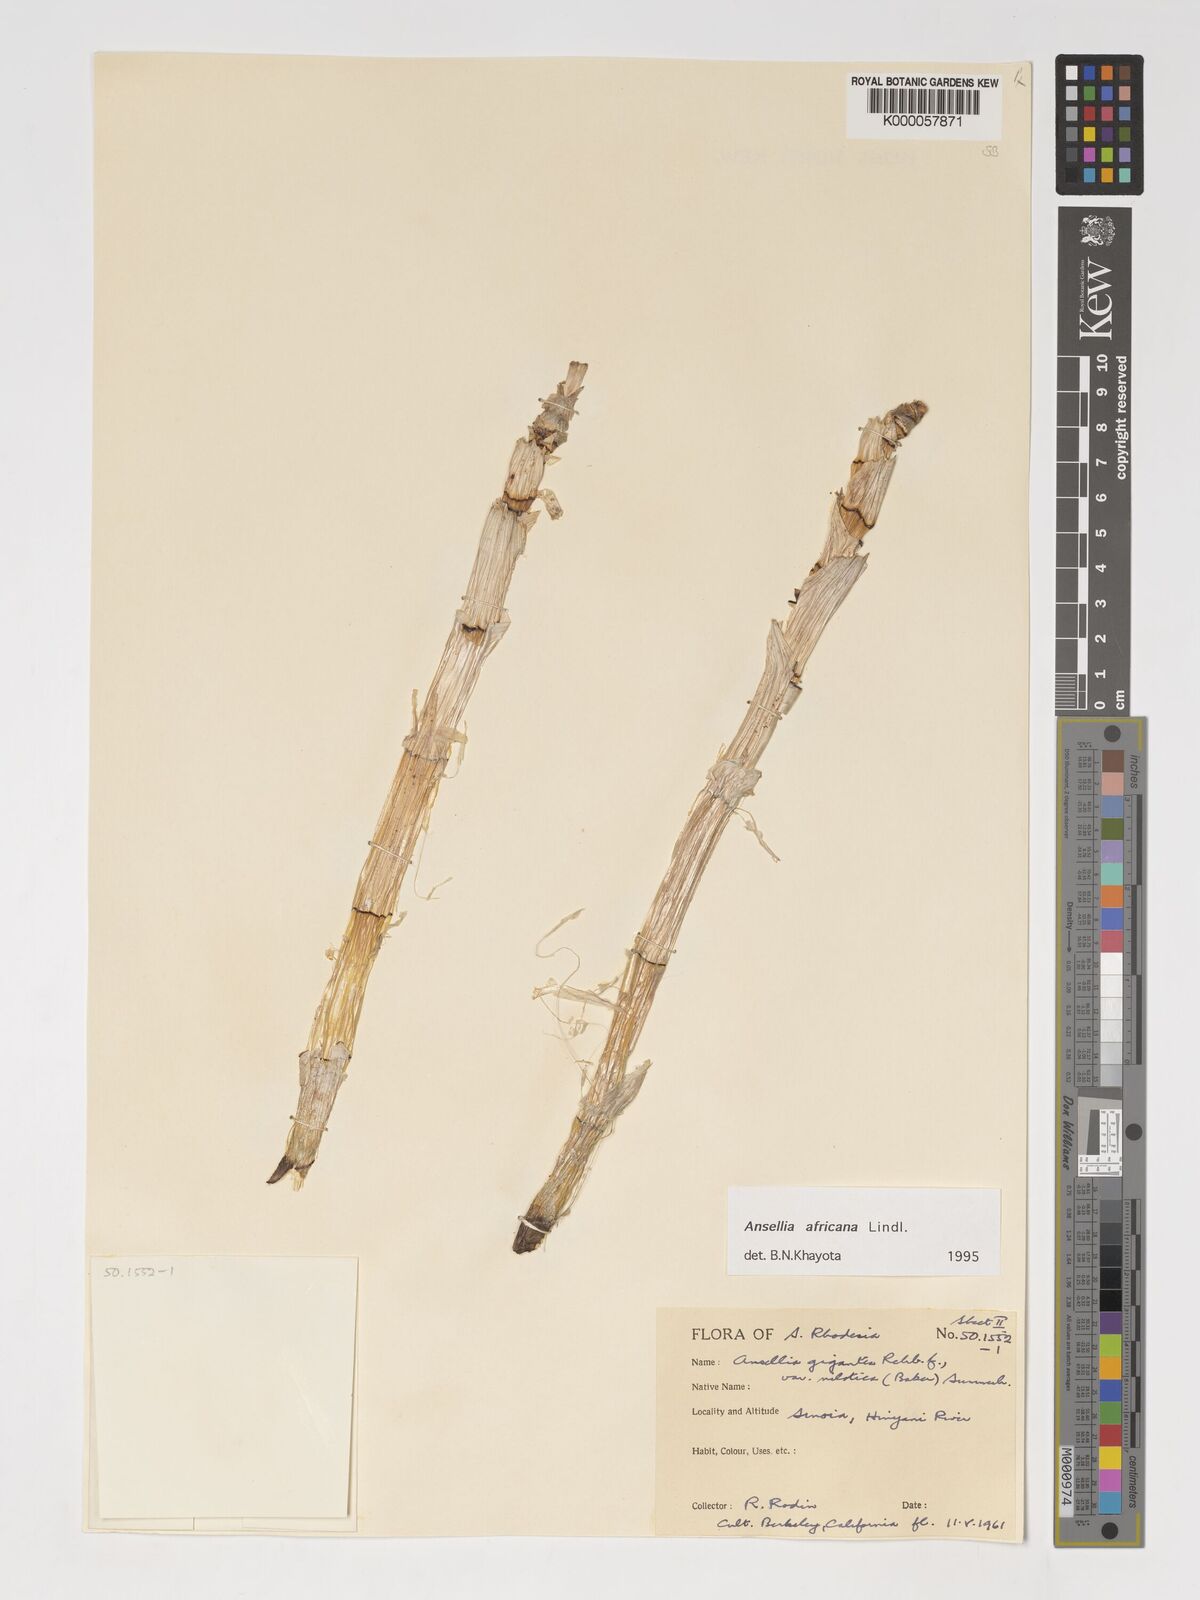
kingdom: Plantae
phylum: Tracheophyta
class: Liliopsida
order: Asparagales
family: Orchidaceae
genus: Ansellia
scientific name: Ansellia africana
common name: African ansellia
